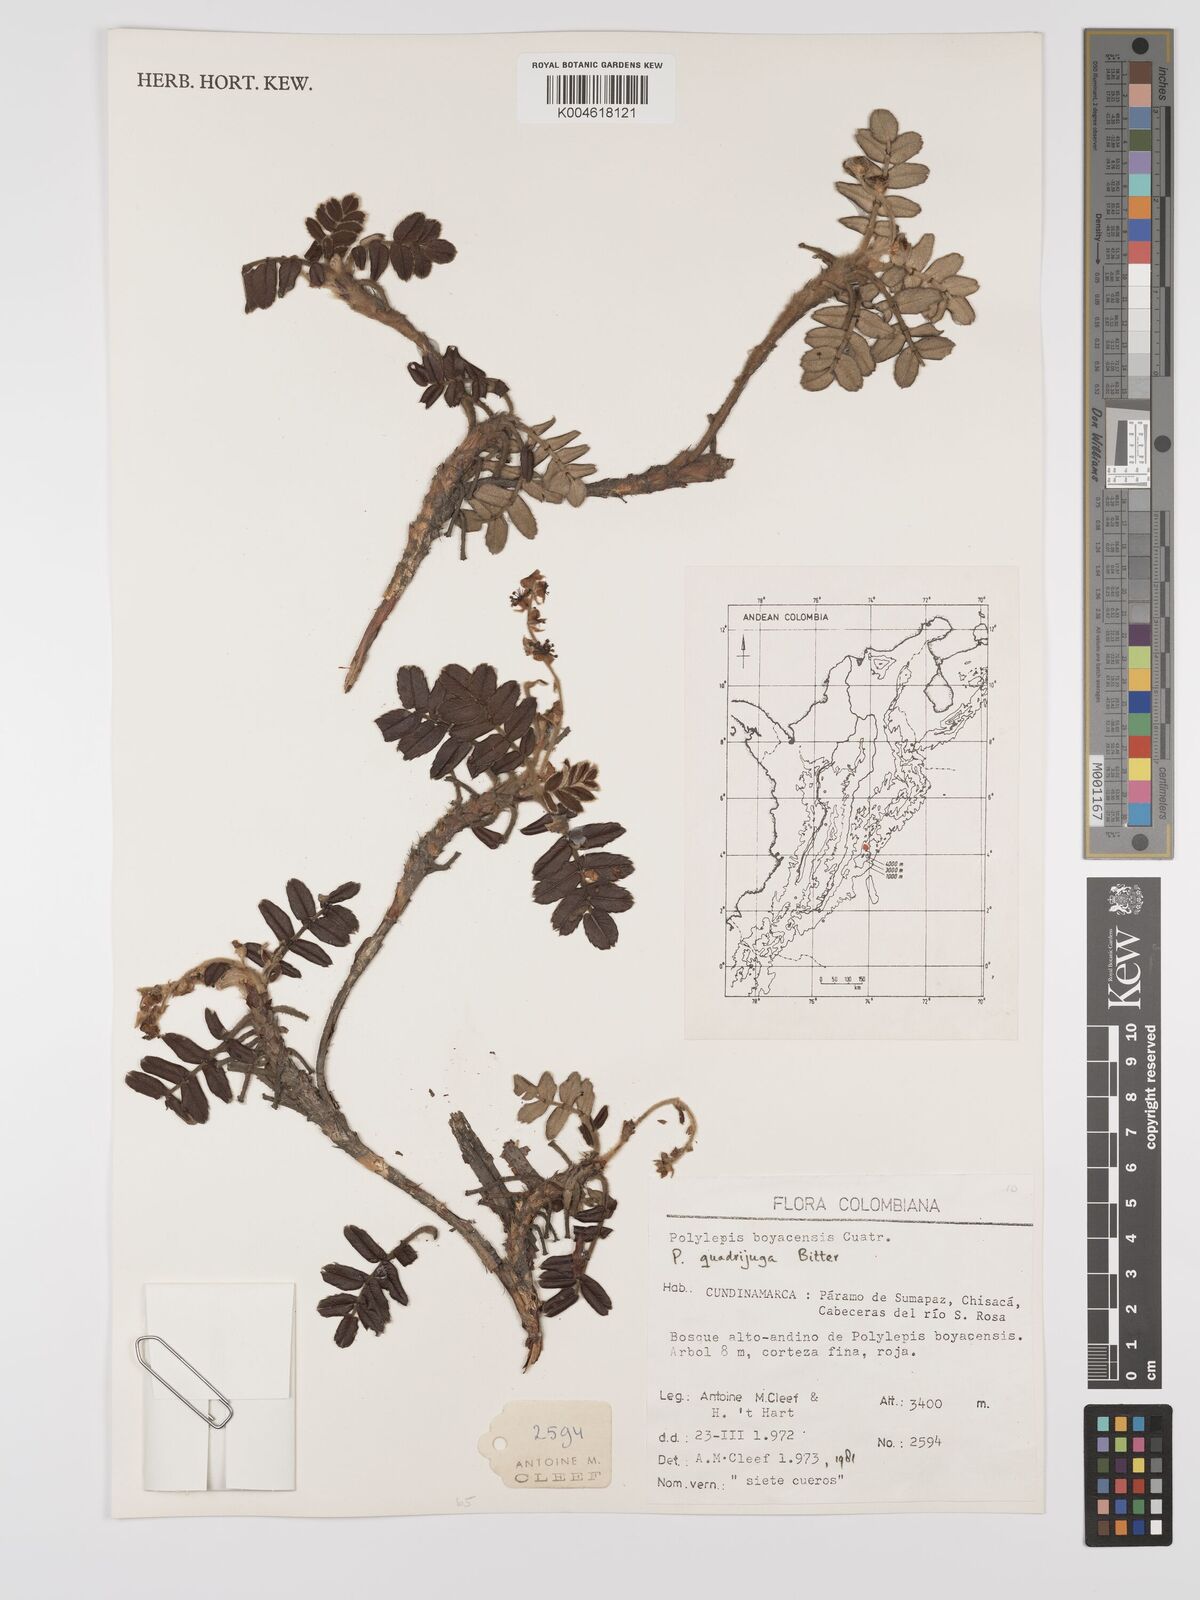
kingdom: Plantae
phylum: Tracheophyta
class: Magnoliopsida
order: Rosales
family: Rosaceae
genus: Polylepis
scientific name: Polylepis quadrijuga
